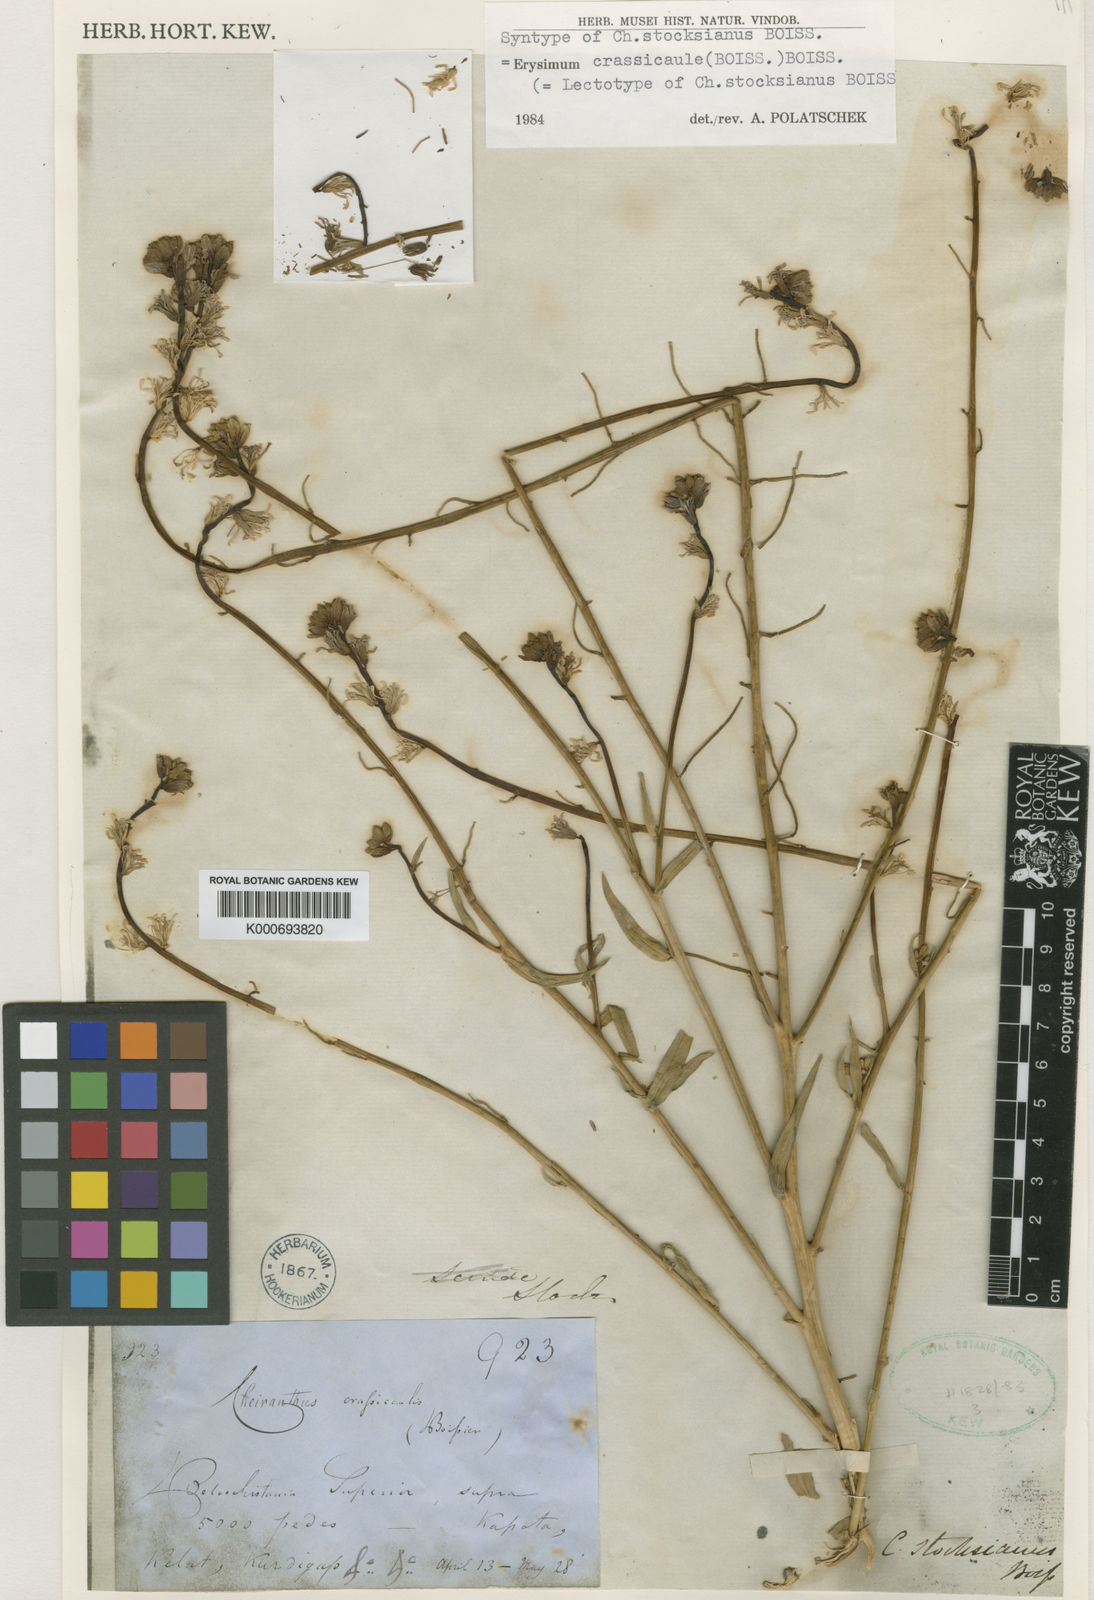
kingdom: Plantae
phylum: Tracheophyta
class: Magnoliopsida
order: Brassicales
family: Brassicaceae
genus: Erysimum
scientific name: Erysimum crassicaule
